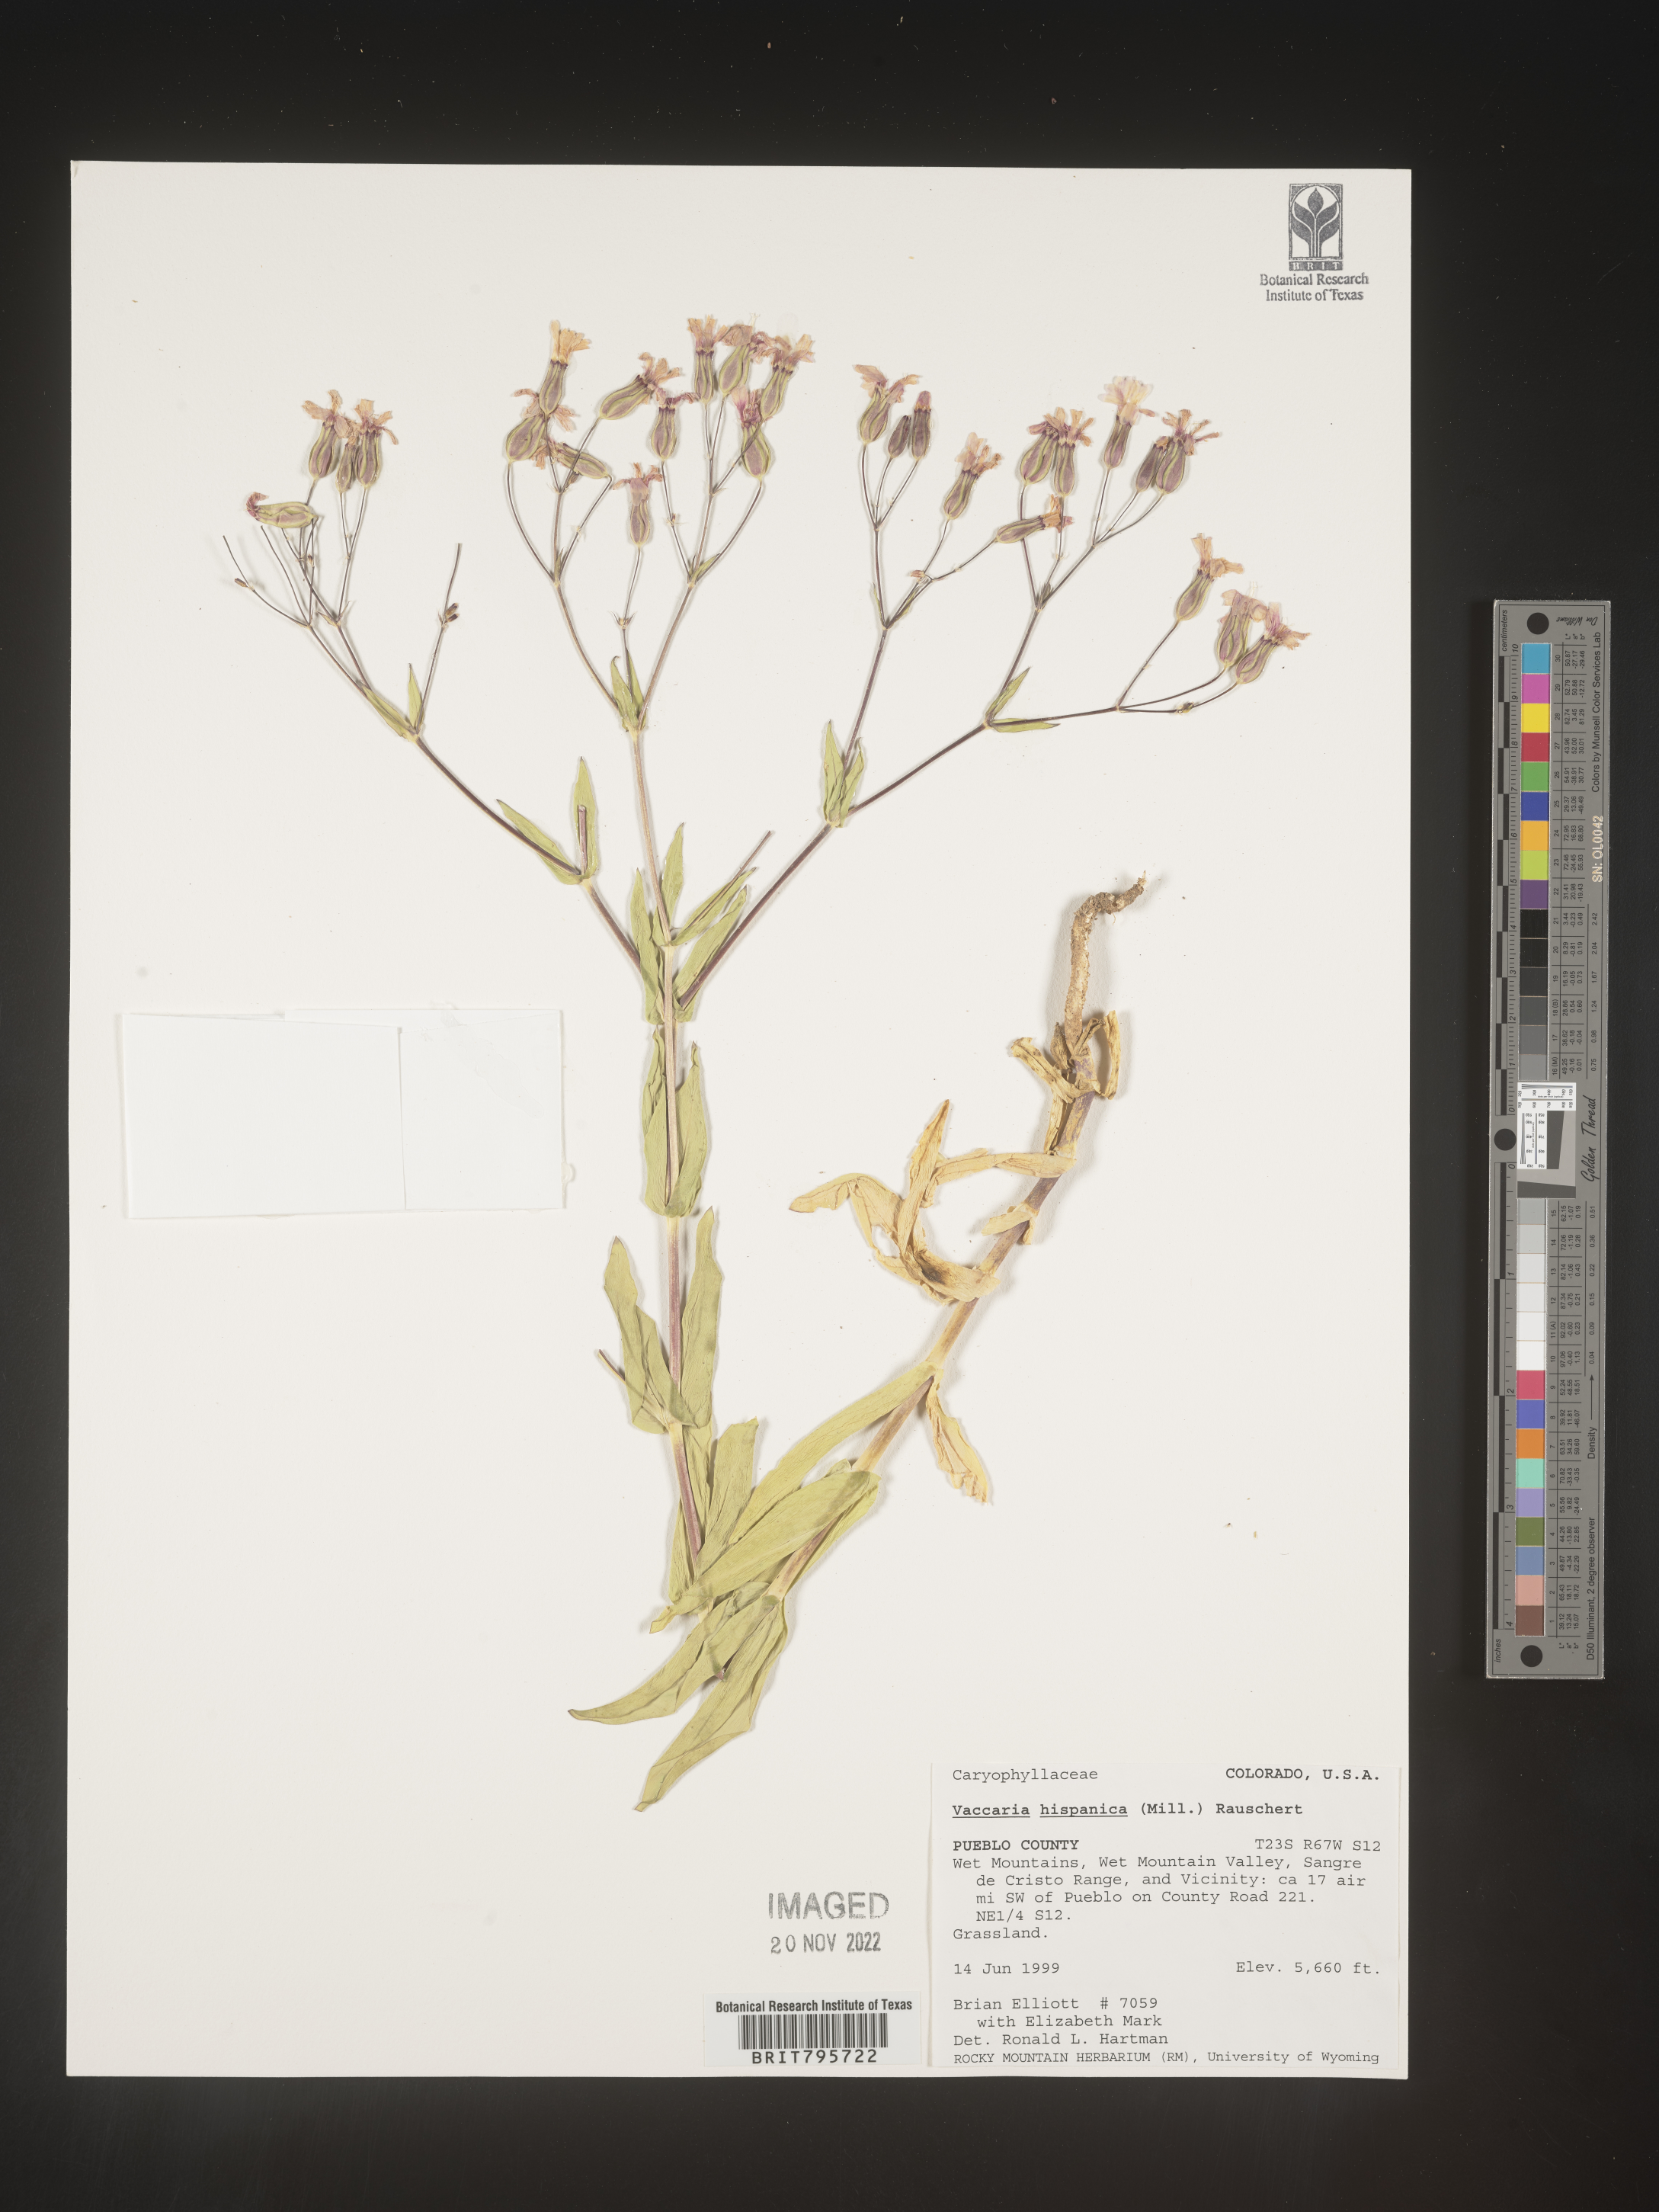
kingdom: Plantae
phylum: Tracheophyta
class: Magnoliopsida
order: Caryophyllales
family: Caryophyllaceae
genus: Vaccaria
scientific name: Vaccaria
